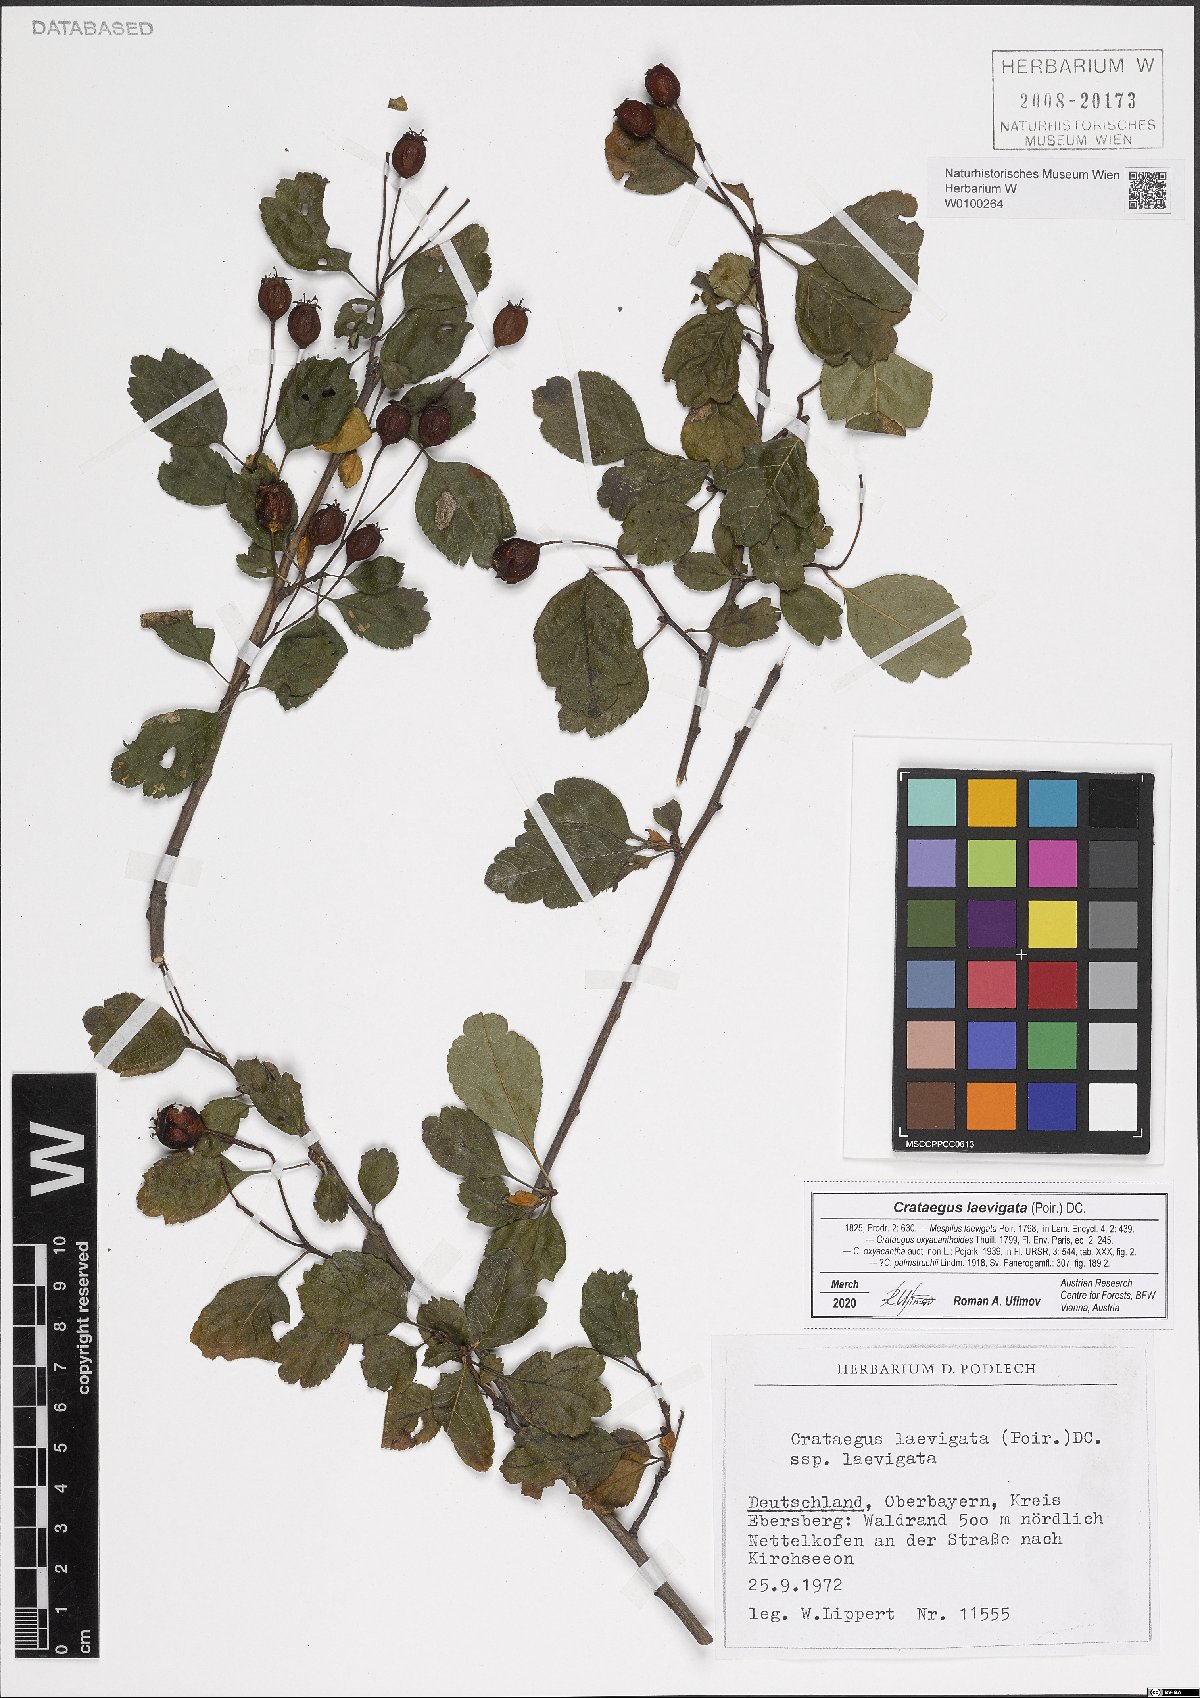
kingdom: Plantae
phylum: Tracheophyta
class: Magnoliopsida
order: Rosales
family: Rosaceae
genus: Crataegus
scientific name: Crataegus laevigata
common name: Midland hawthorn
